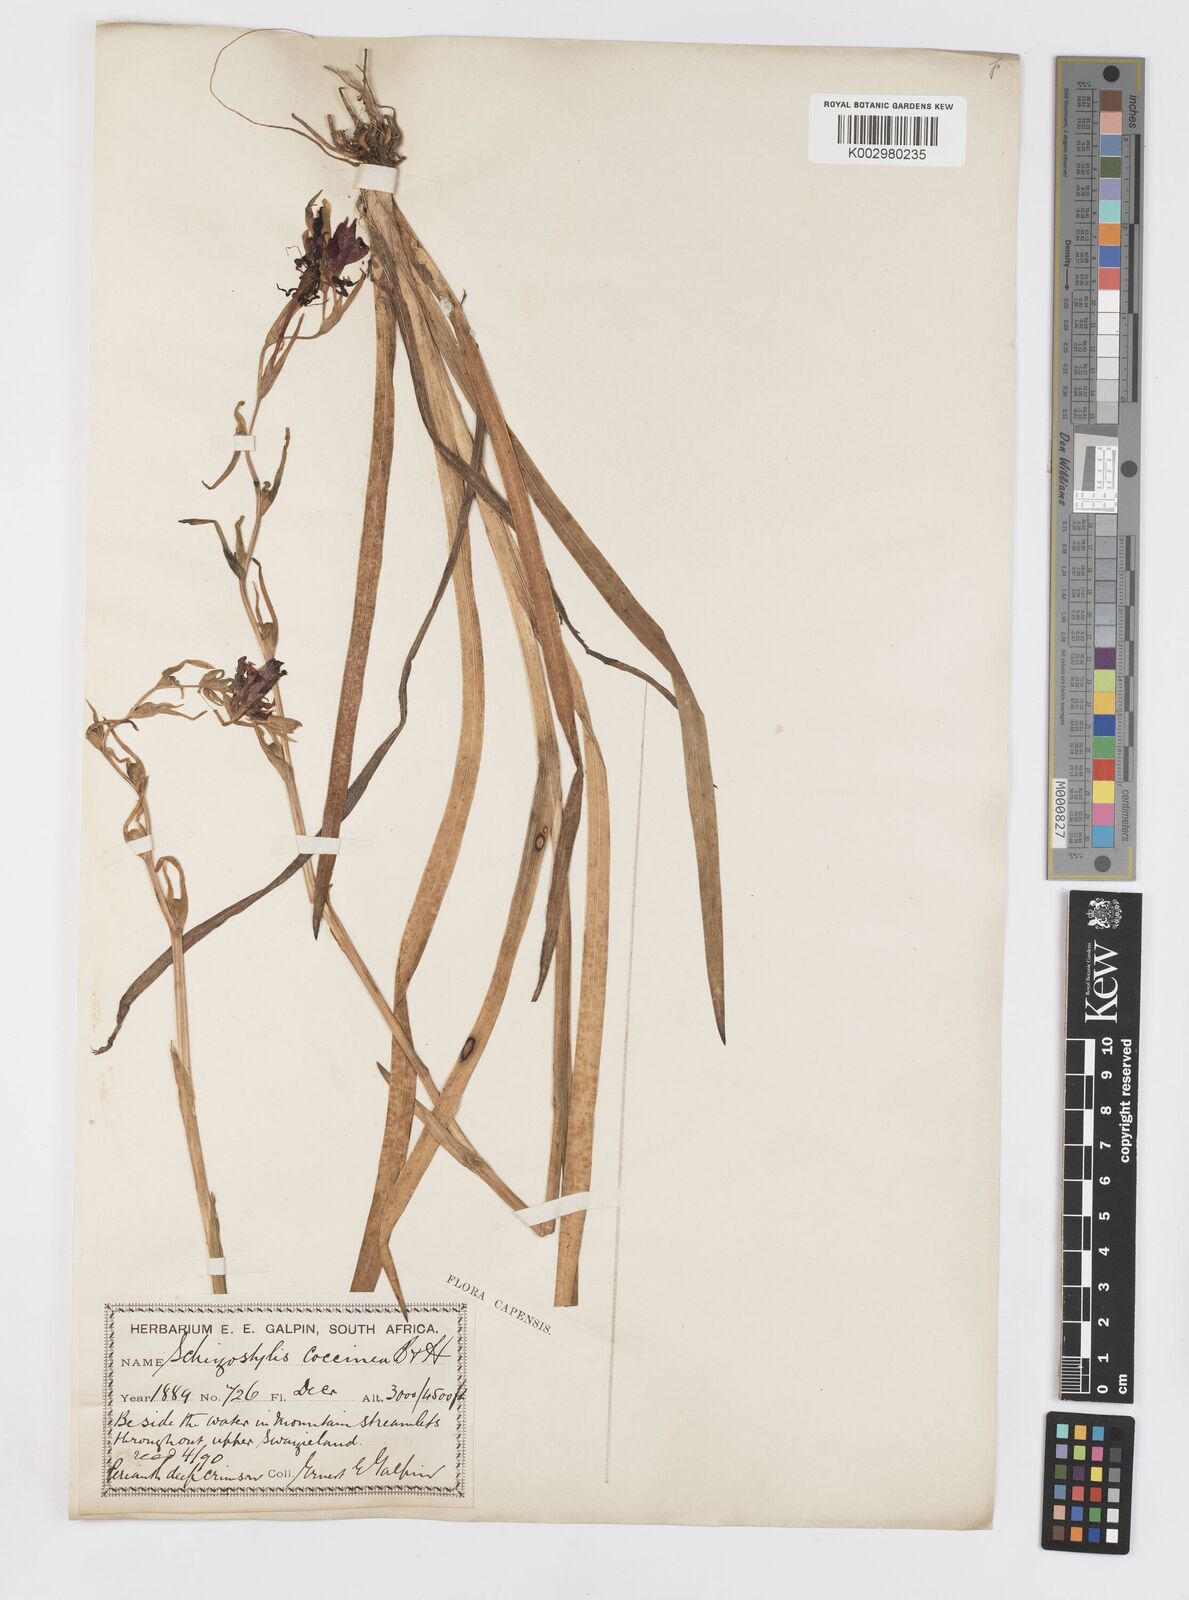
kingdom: Plantae
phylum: Tracheophyta
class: Liliopsida
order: Asparagales
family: Iridaceae
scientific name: Iridaceae
